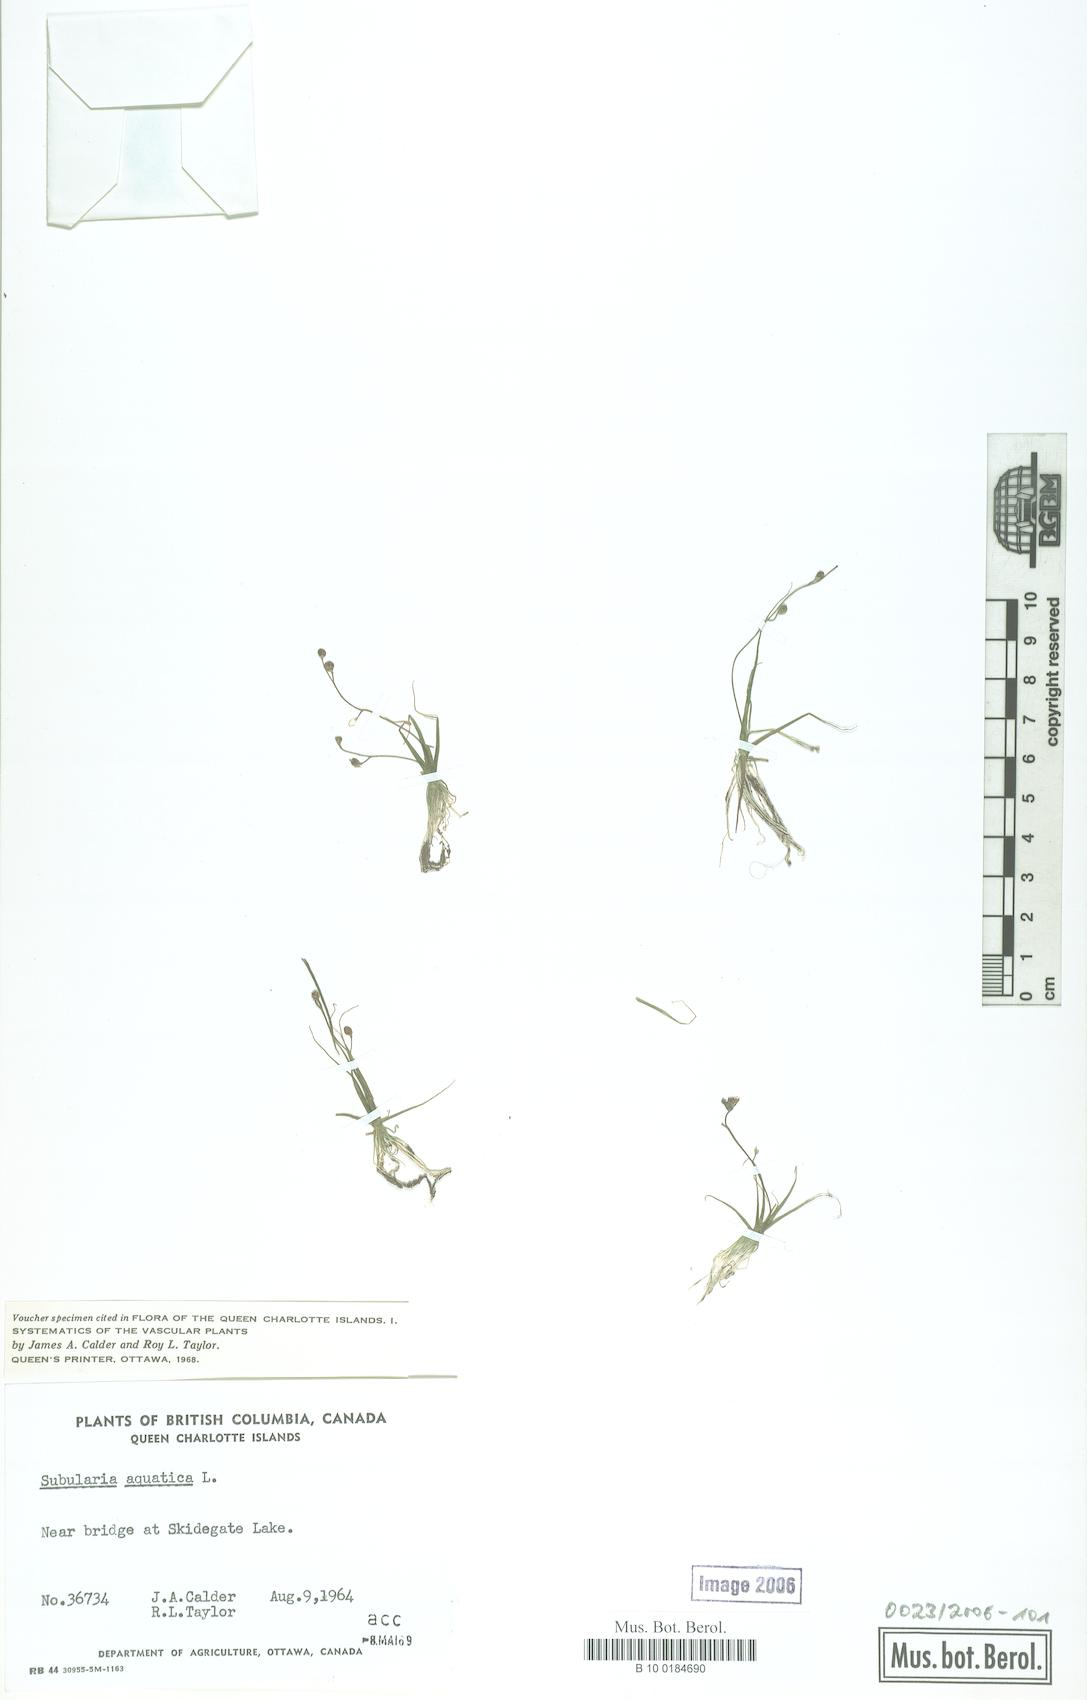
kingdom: Plantae
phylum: Tracheophyta
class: Magnoliopsida
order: Brassicales
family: Brassicaceae
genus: Subularia
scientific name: Subularia aquatica
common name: Awlwort
